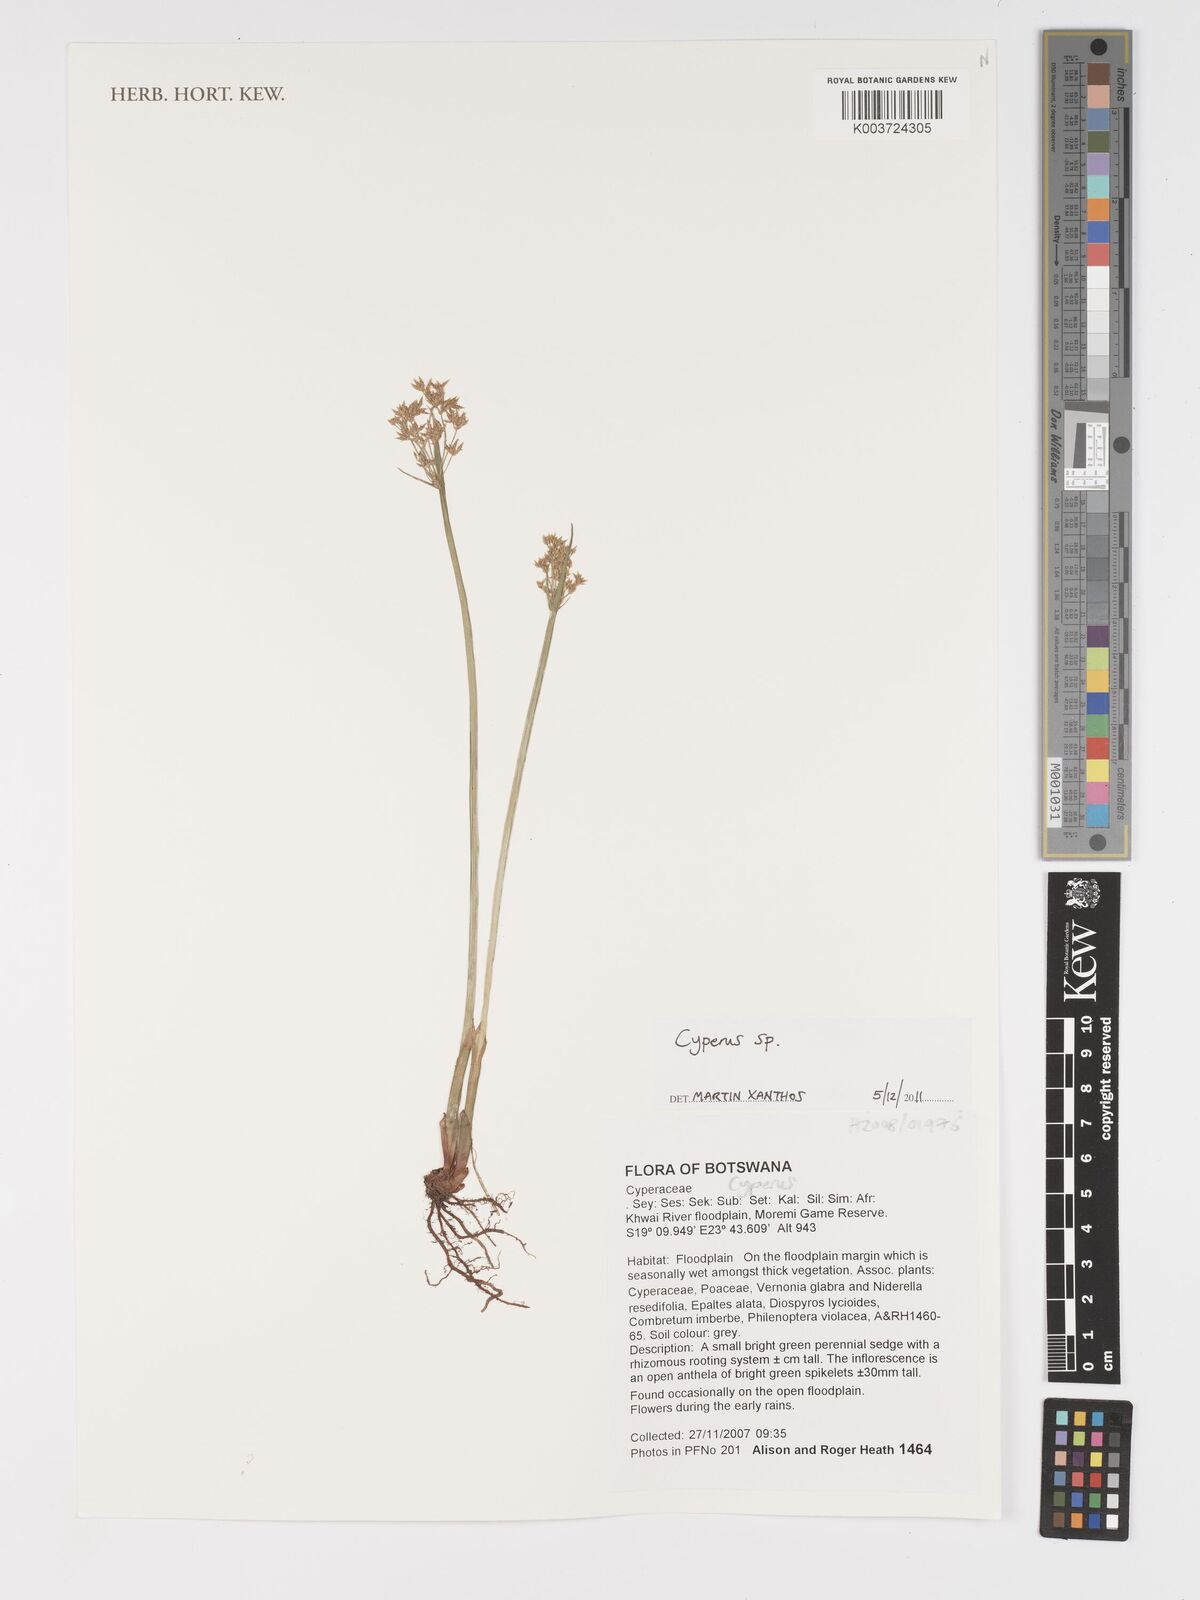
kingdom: Plantae
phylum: Tracheophyta
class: Liliopsida
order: Poales
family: Cyperaceae
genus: Cyperus
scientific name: Cyperus
